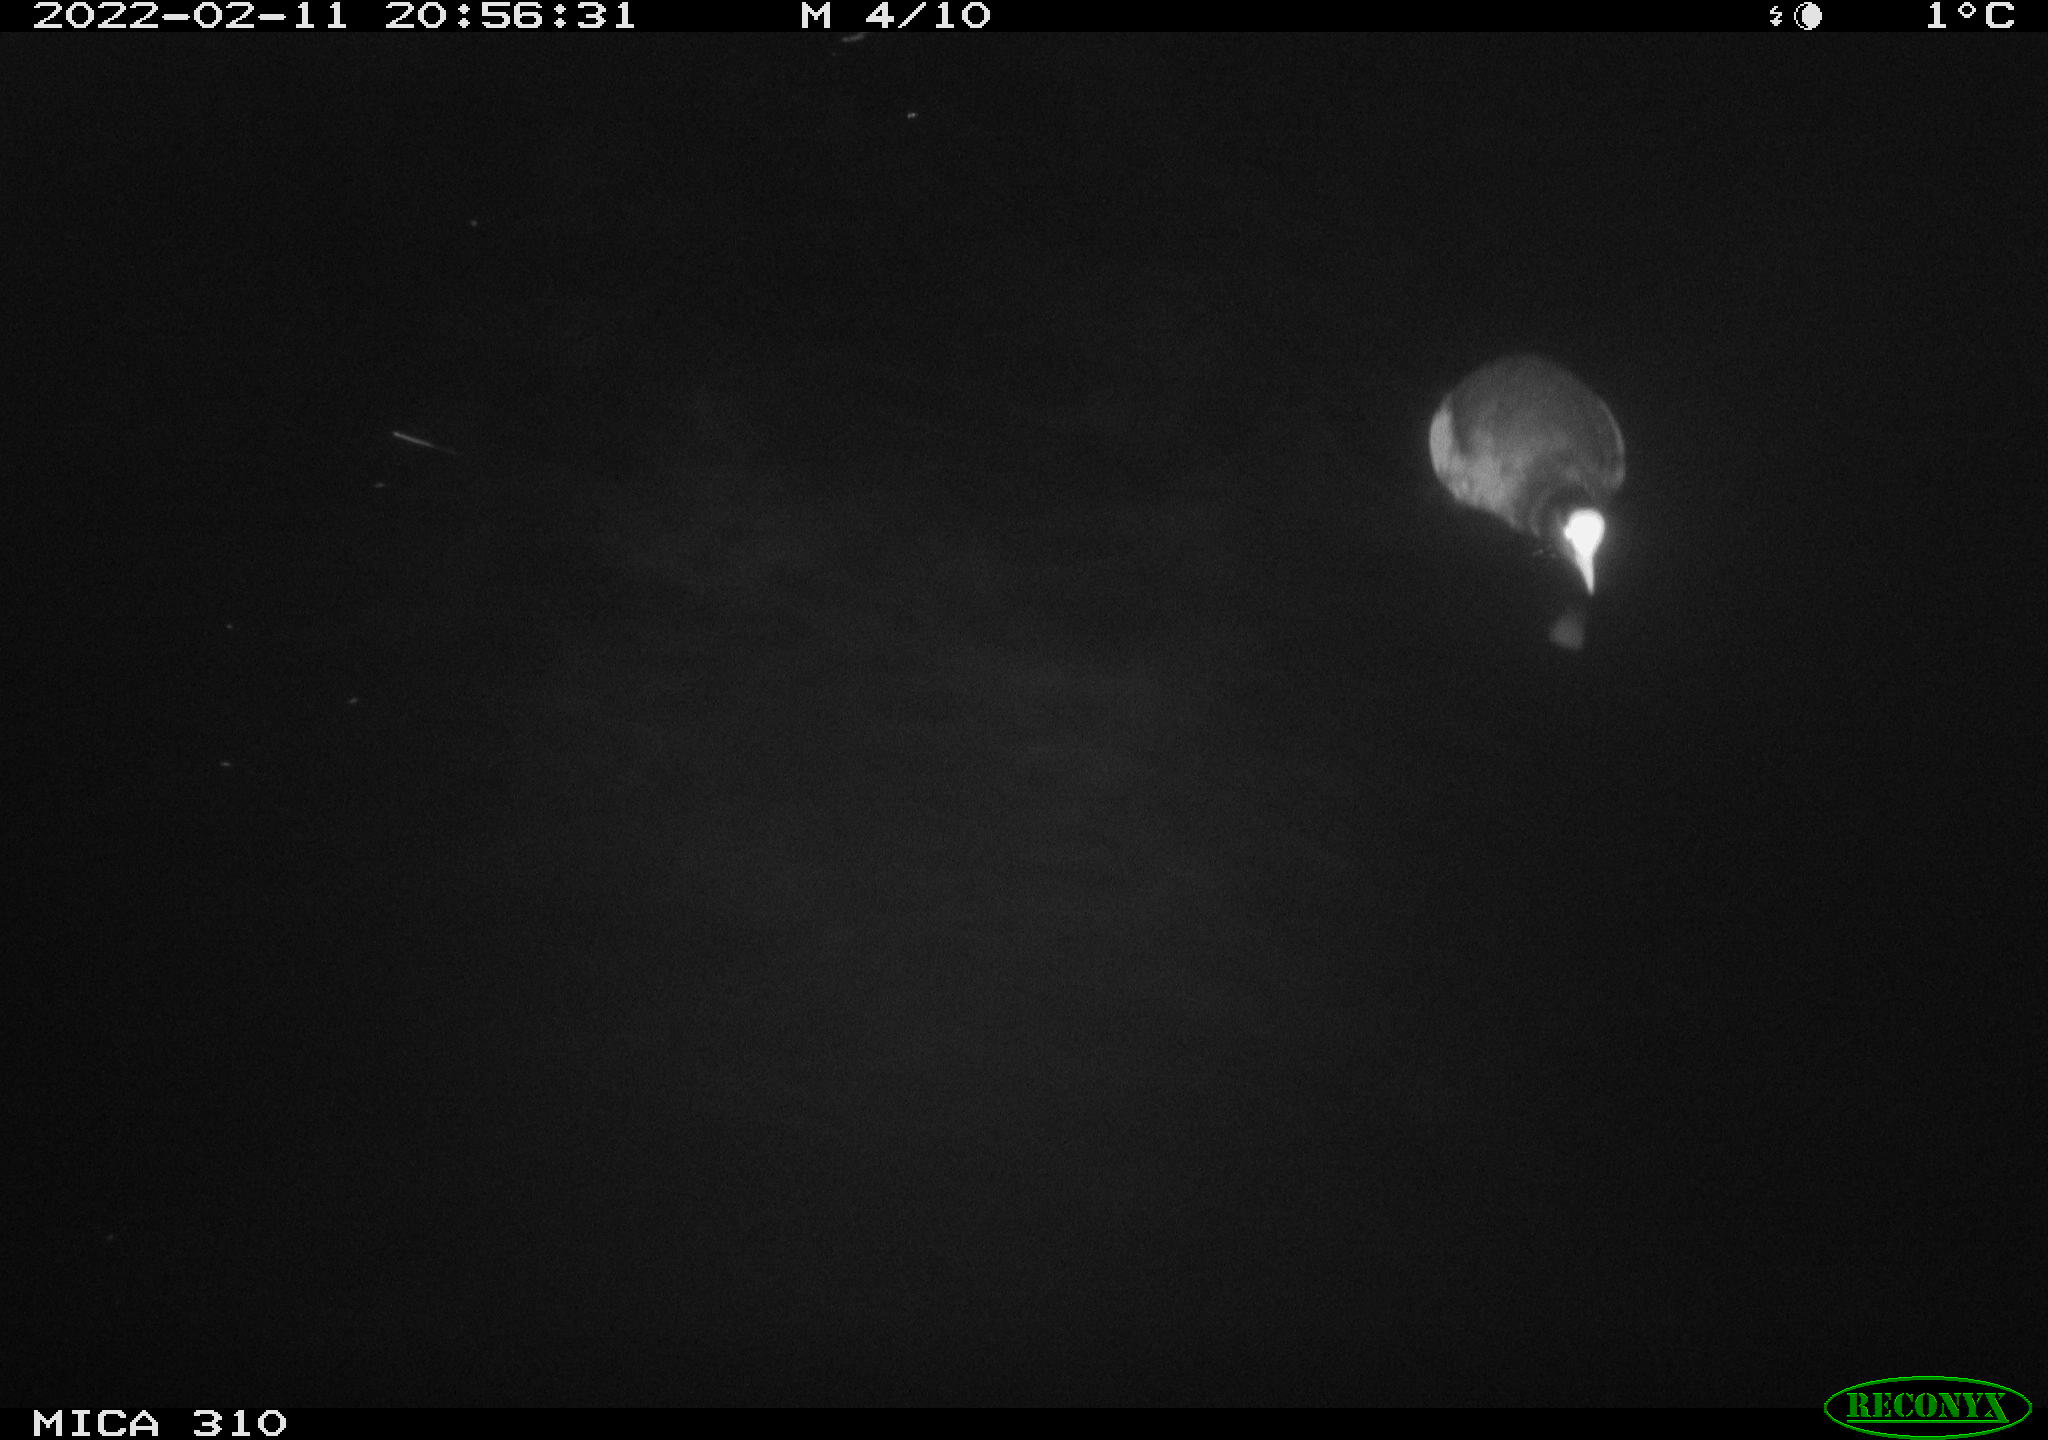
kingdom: Animalia
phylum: Chordata
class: Aves
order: Gruiformes
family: Rallidae
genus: Fulica
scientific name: Fulica atra
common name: Eurasian coot
